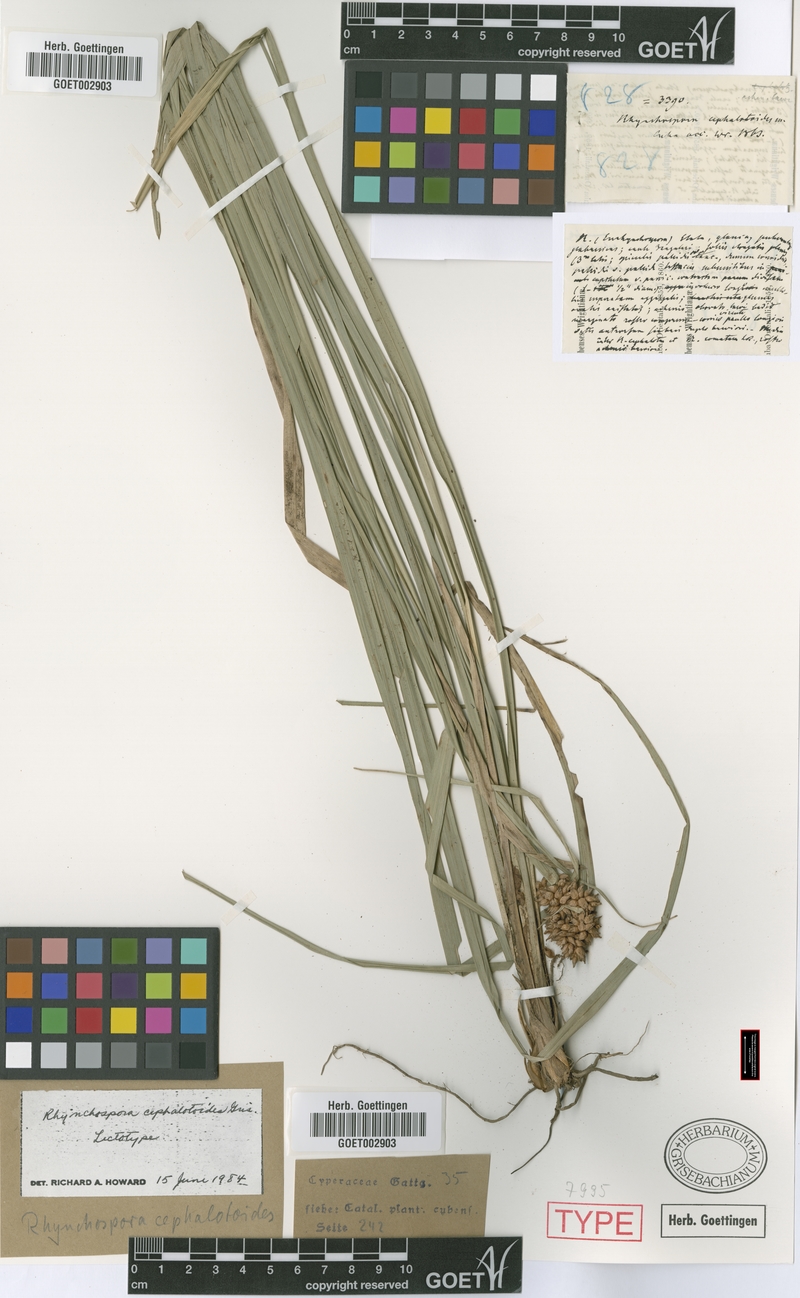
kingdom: Plantae
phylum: Tracheophyta
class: Liliopsida
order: Poales
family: Cyperaceae
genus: Rhynchospora
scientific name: Rhynchospora cephalotoides
